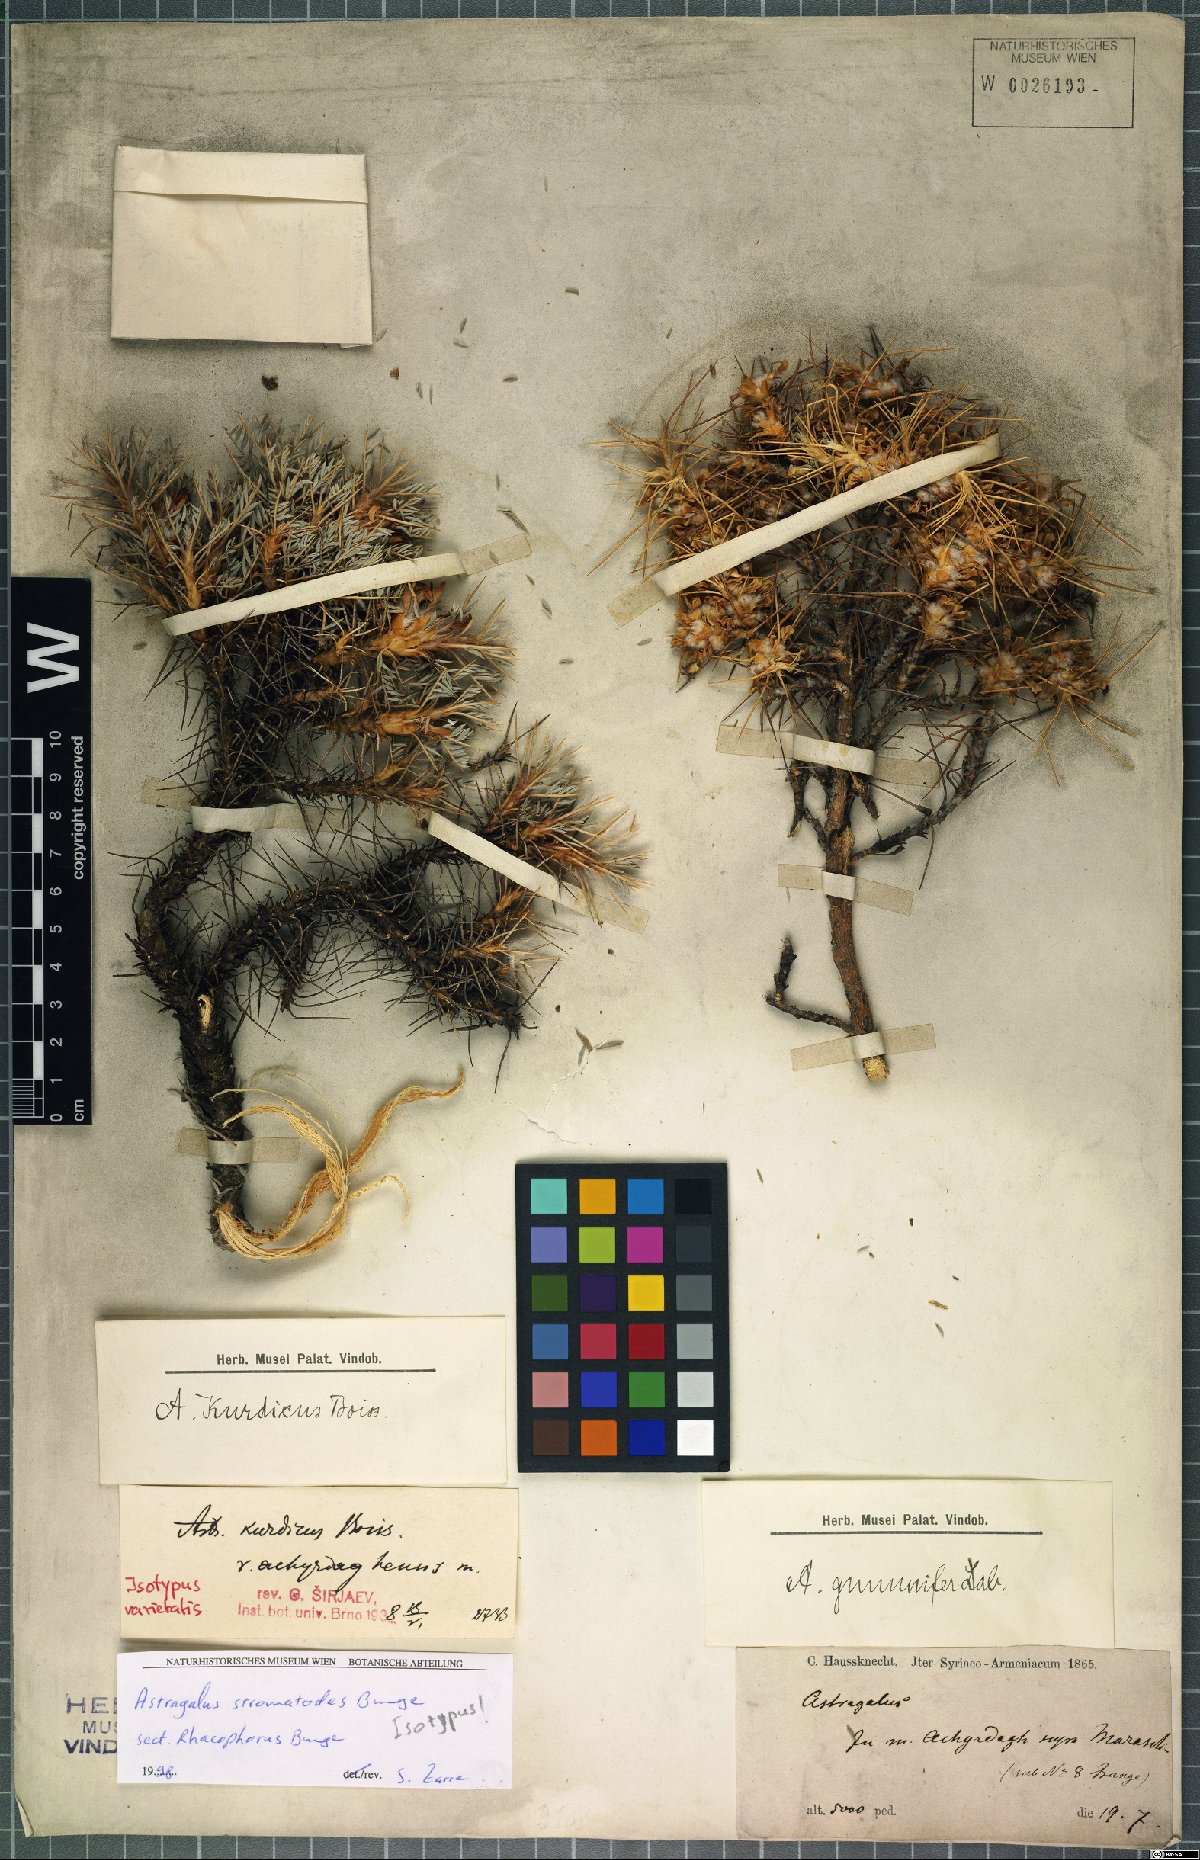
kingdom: Plantae
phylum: Tracheophyta
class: Magnoliopsida
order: Fabales
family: Fabaceae
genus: Astragalus
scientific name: Astragalus cymbostegis
